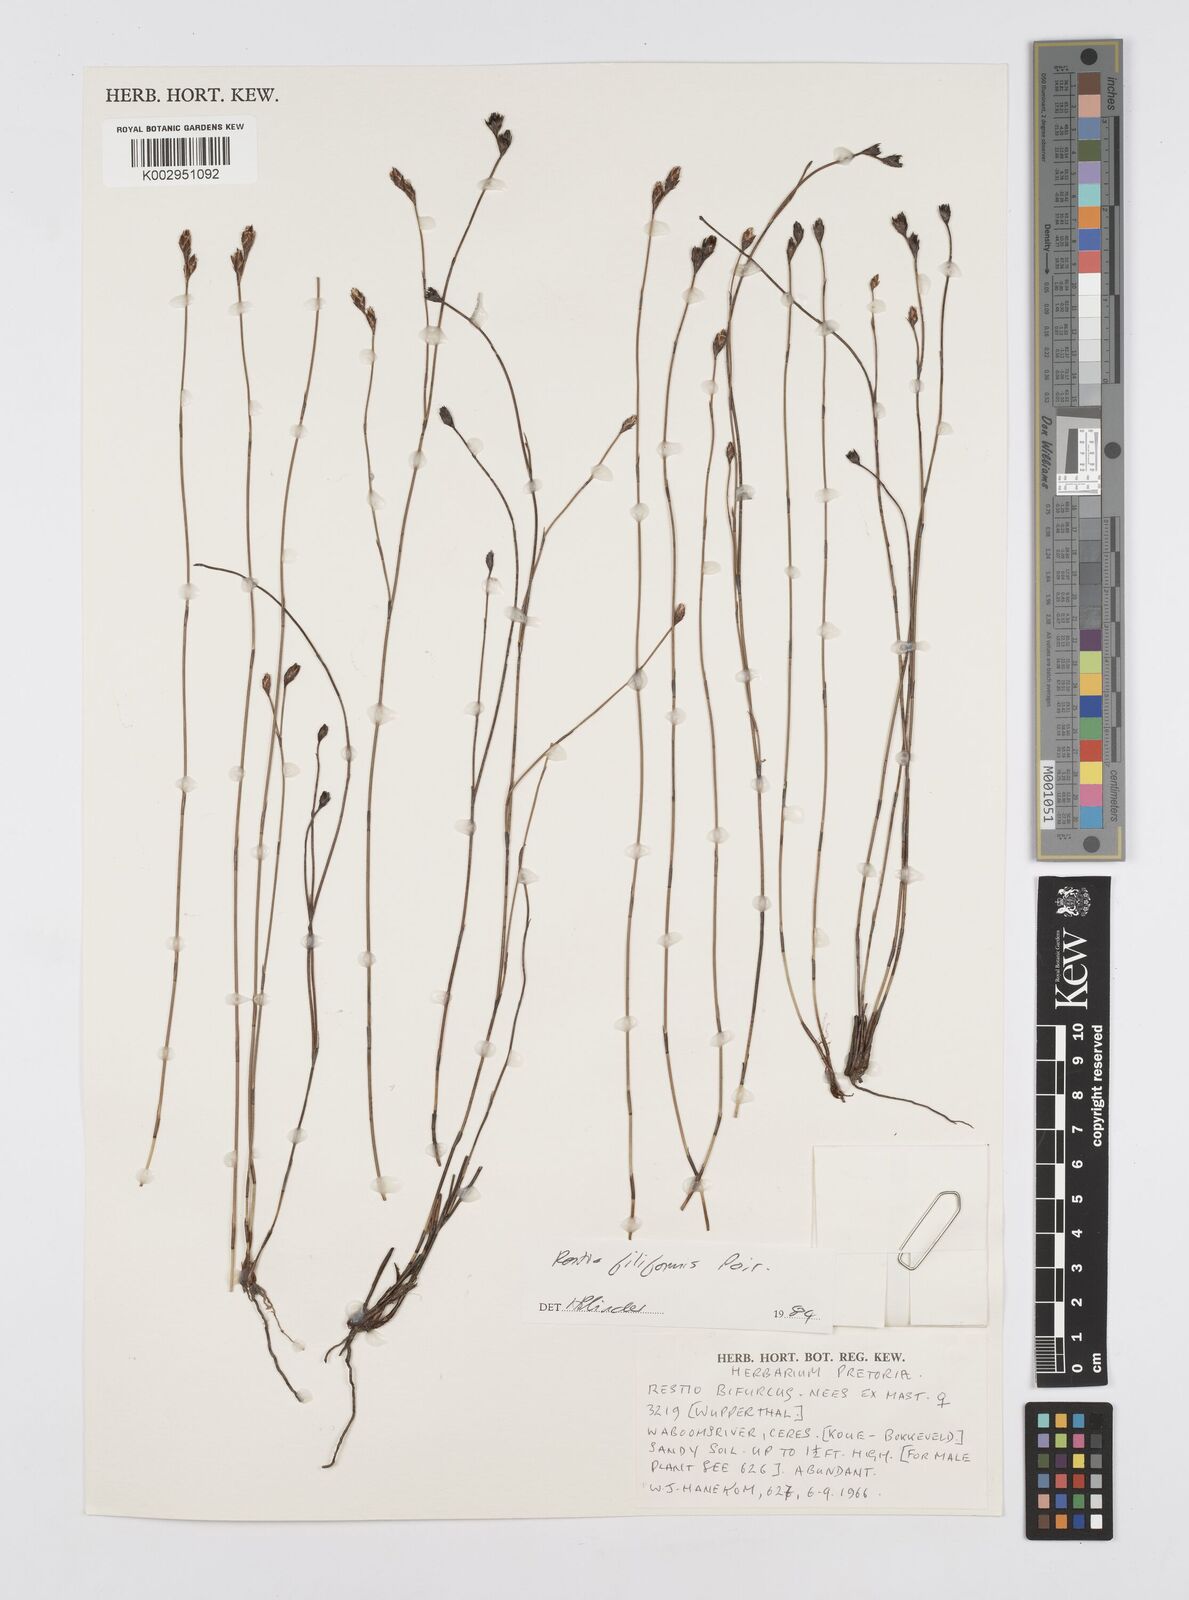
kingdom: Plantae
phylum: Tracheophyta
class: Liliopsida
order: Poales
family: Restionaceae
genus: Restio
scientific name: Restio filiformis
